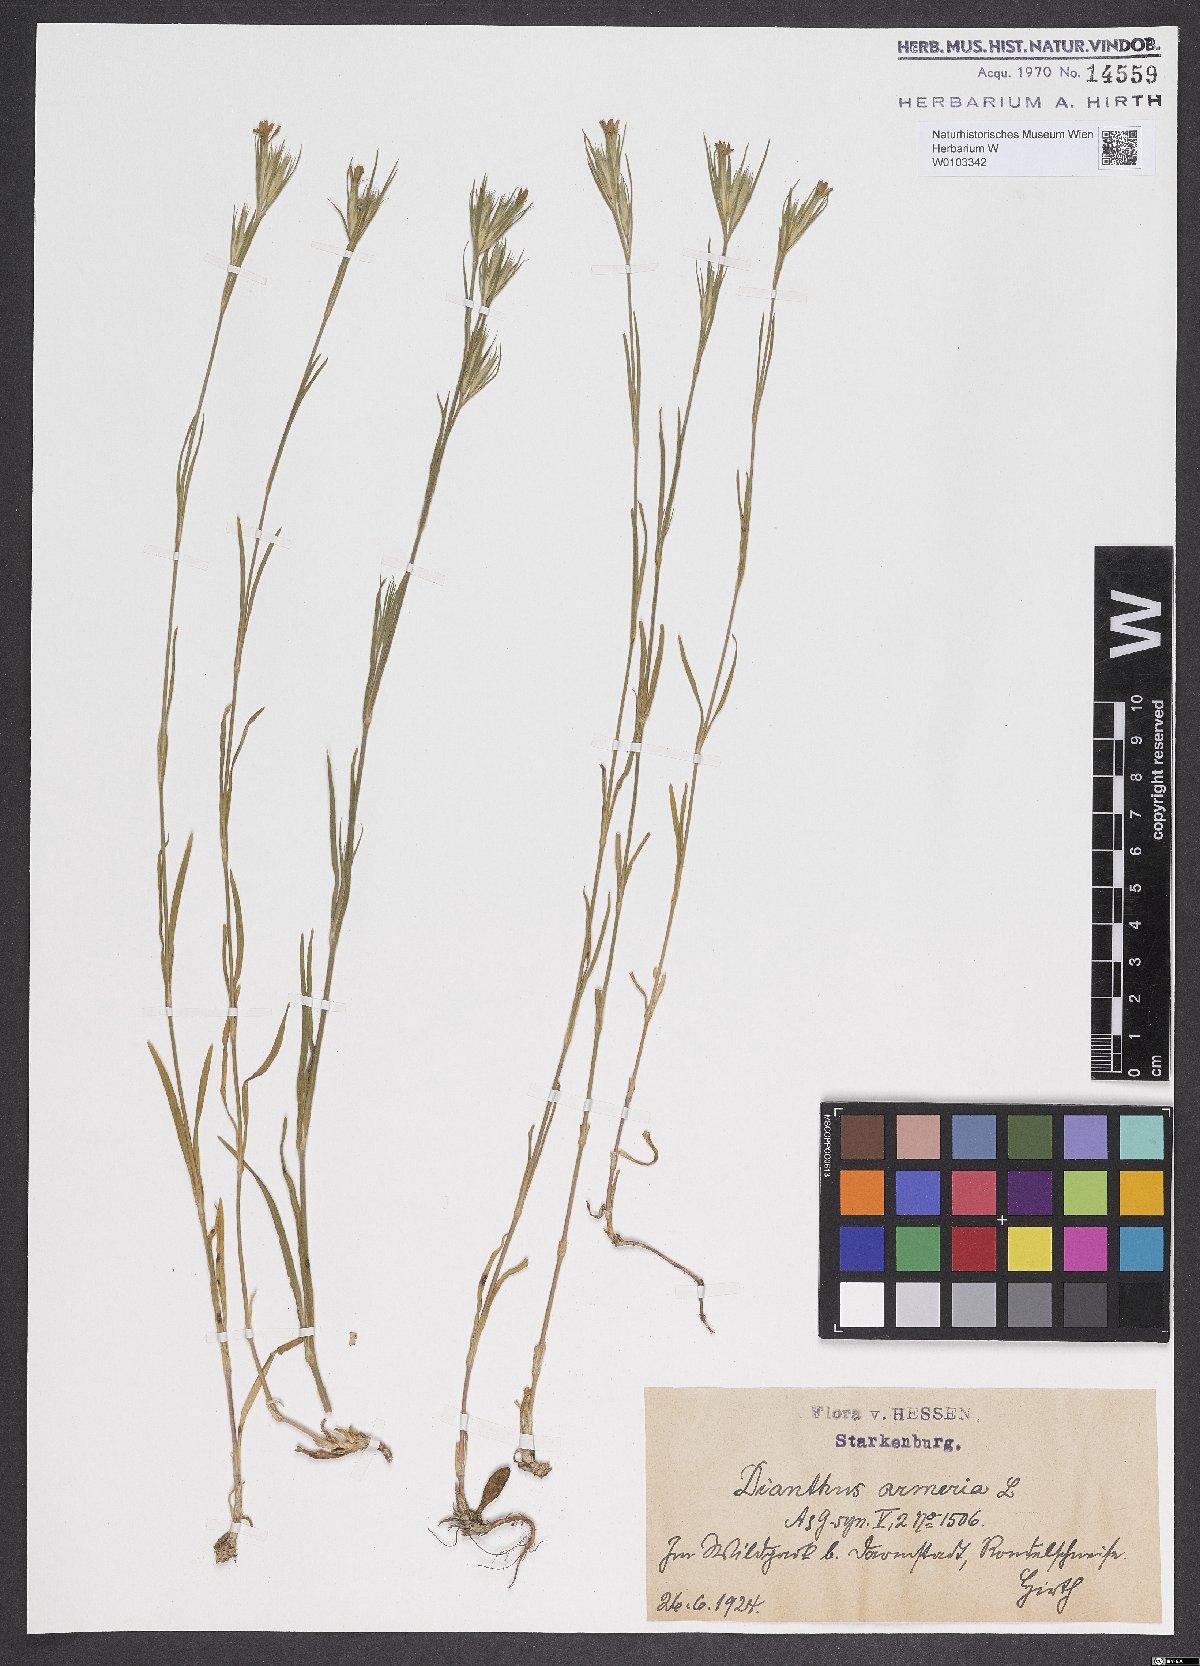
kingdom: Plantae
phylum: Tracheophyta
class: Magnoliopsida
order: Caryophyllales
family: Caryophyllaceae
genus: Dianthus
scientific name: Dianthus armeria
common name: Deptford pink
